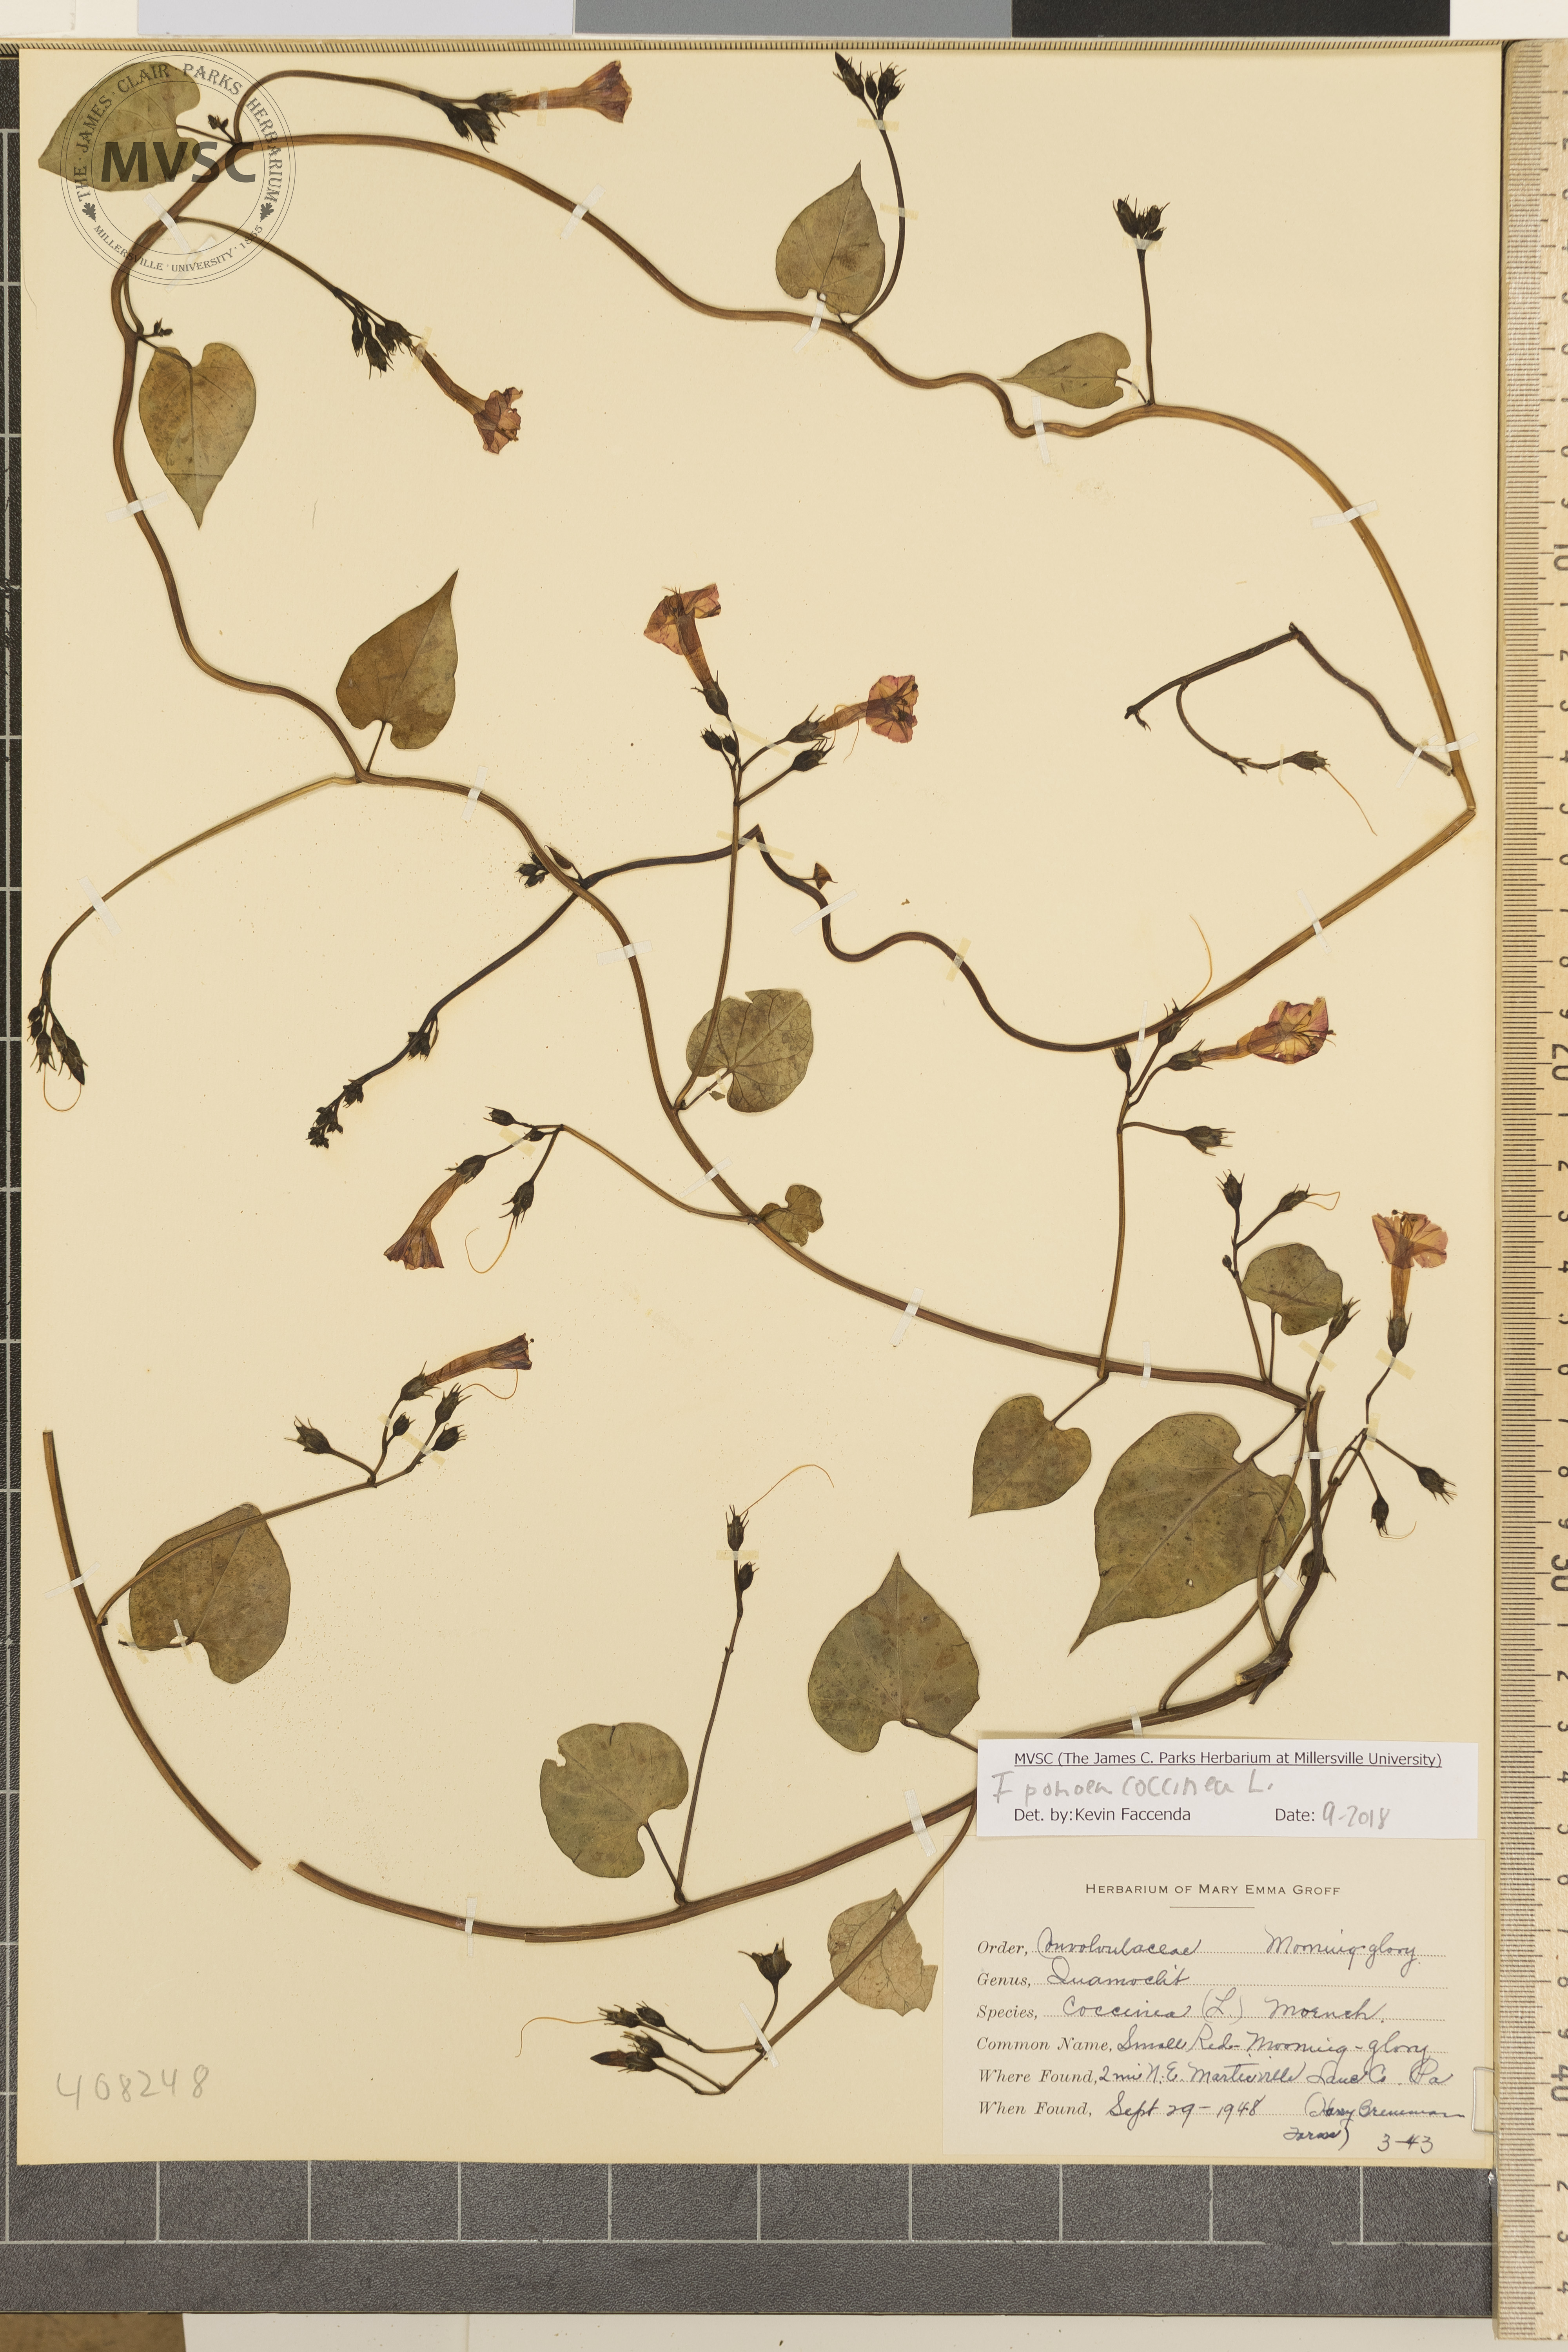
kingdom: Plantae
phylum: Tracheophyta
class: Magnoliopsida
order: Solanales
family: Convolvulaceae
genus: Ipomoea
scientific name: Ipomoea coccinea
